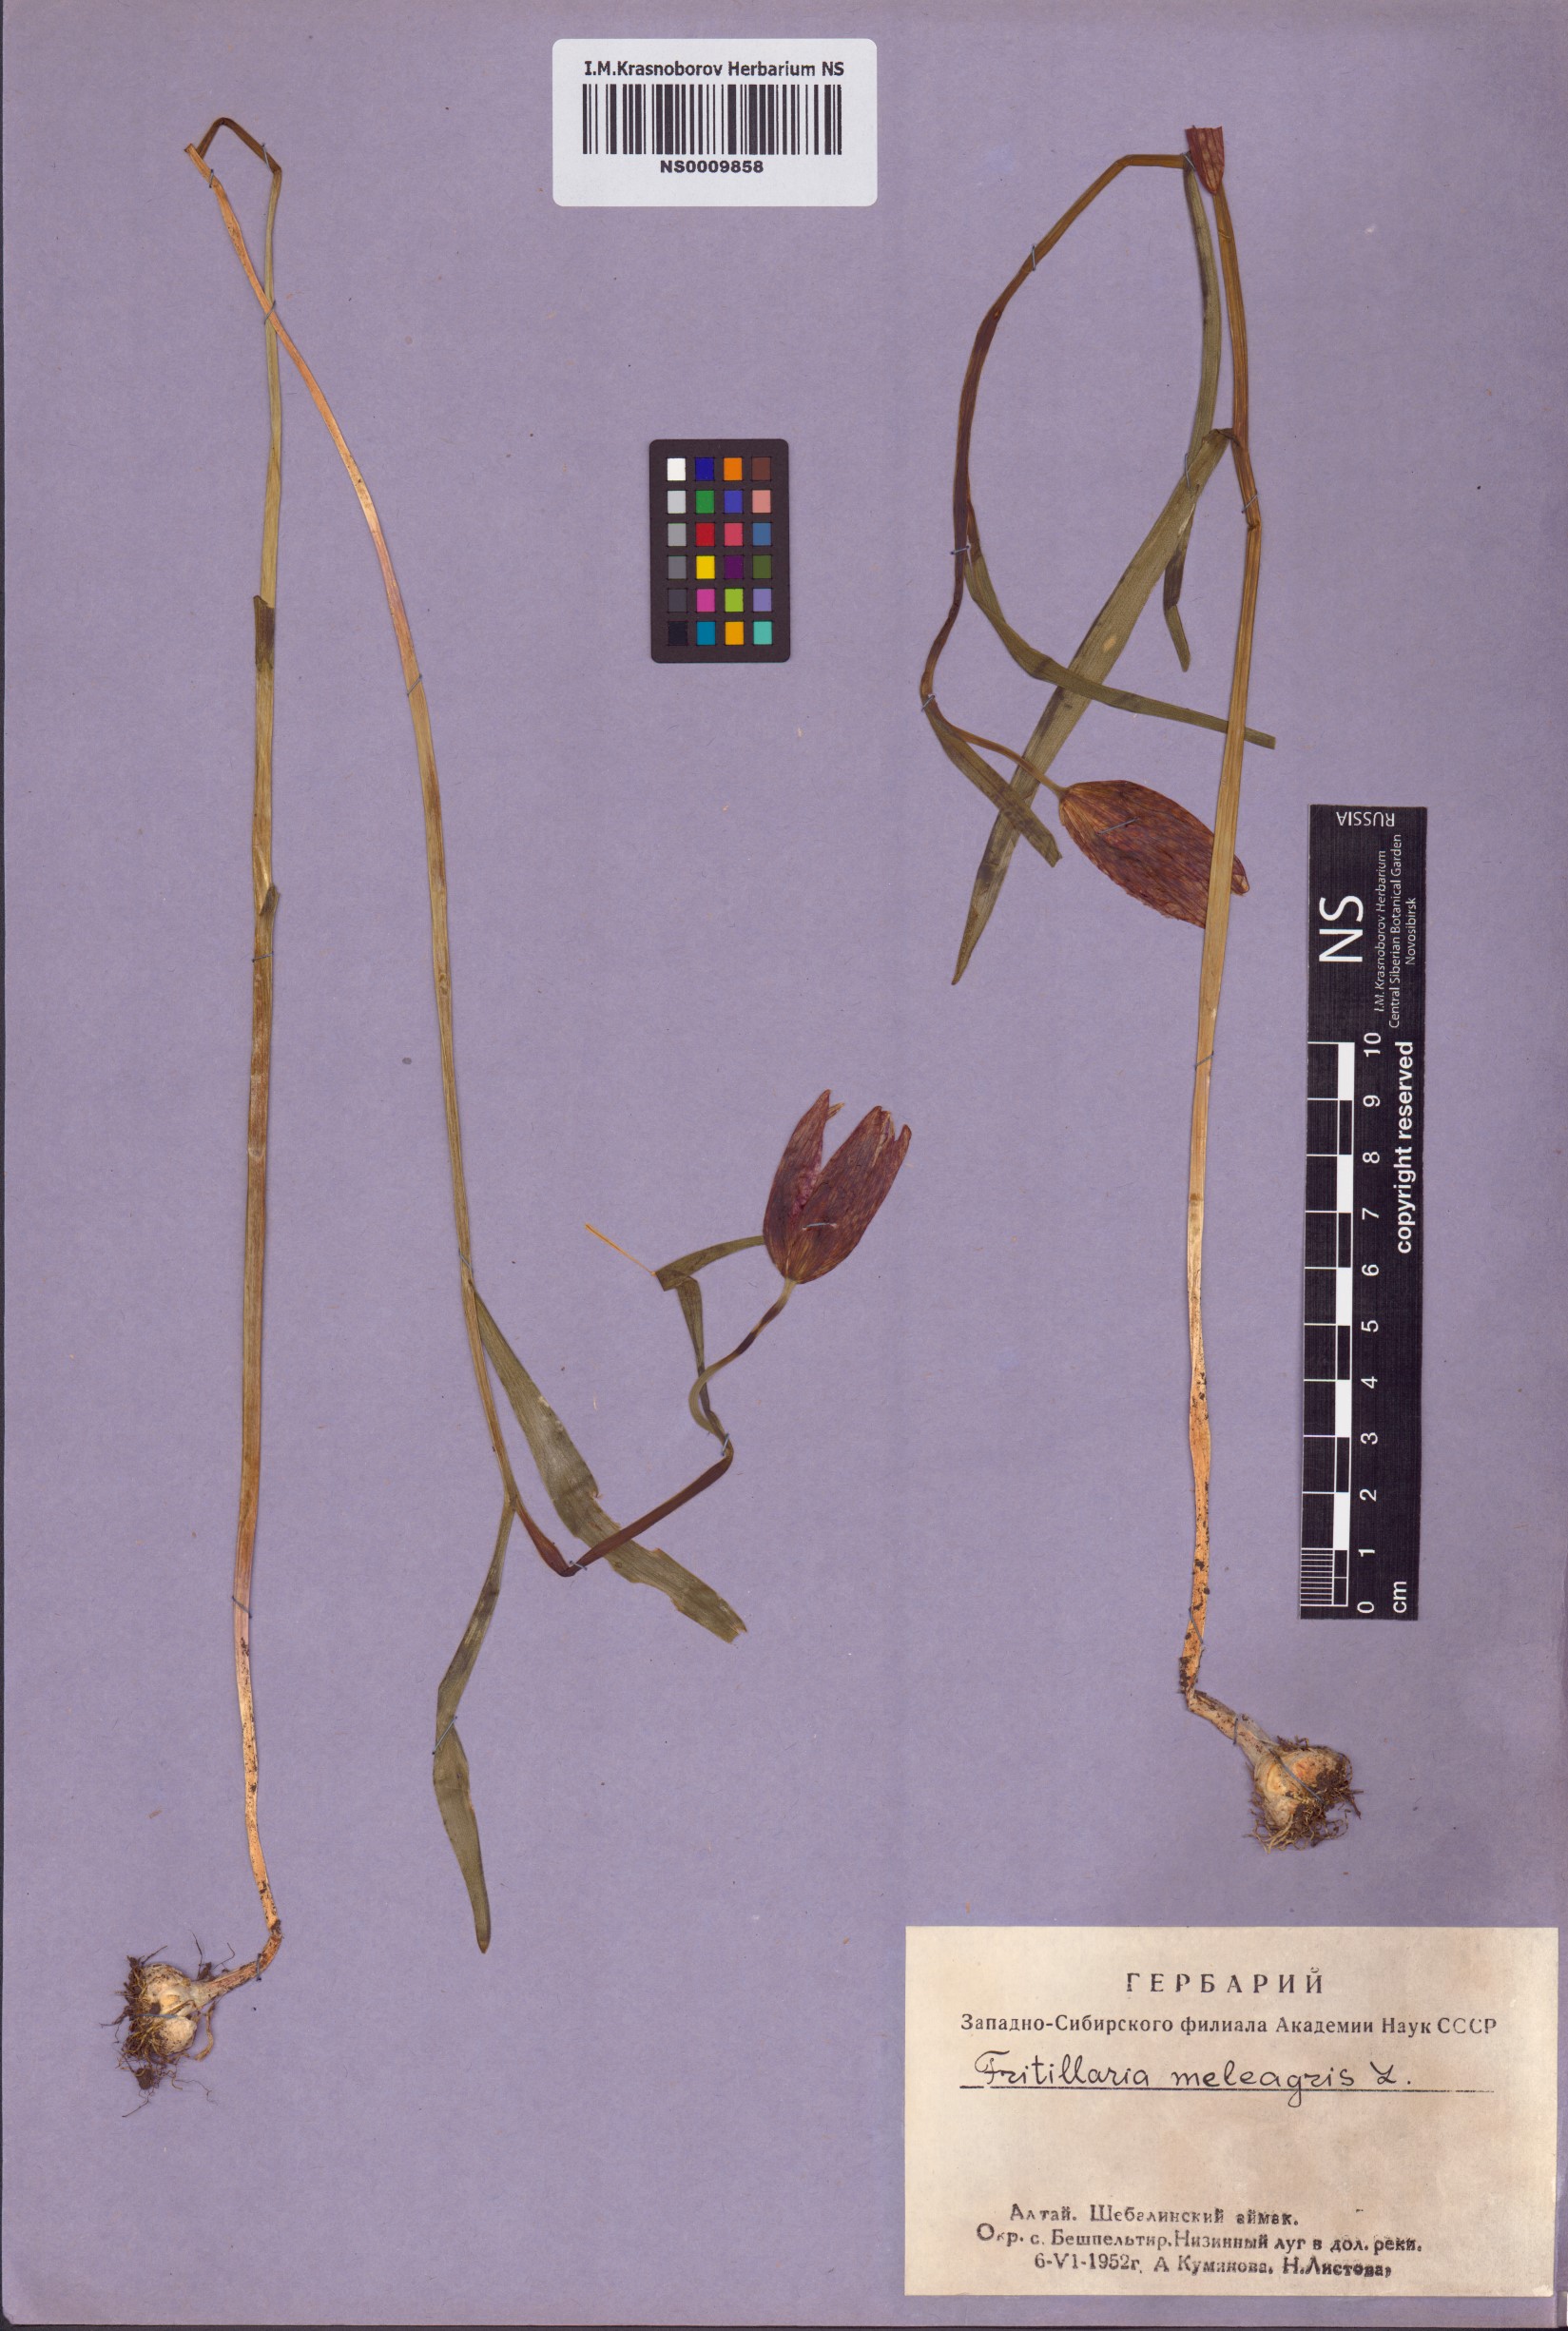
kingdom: Plantae
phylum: Tracheophyta
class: Liliopsida
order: Liliales
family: Liliaceae
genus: Fritillaria
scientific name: Fritillaria meleagris
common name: Fritillary
